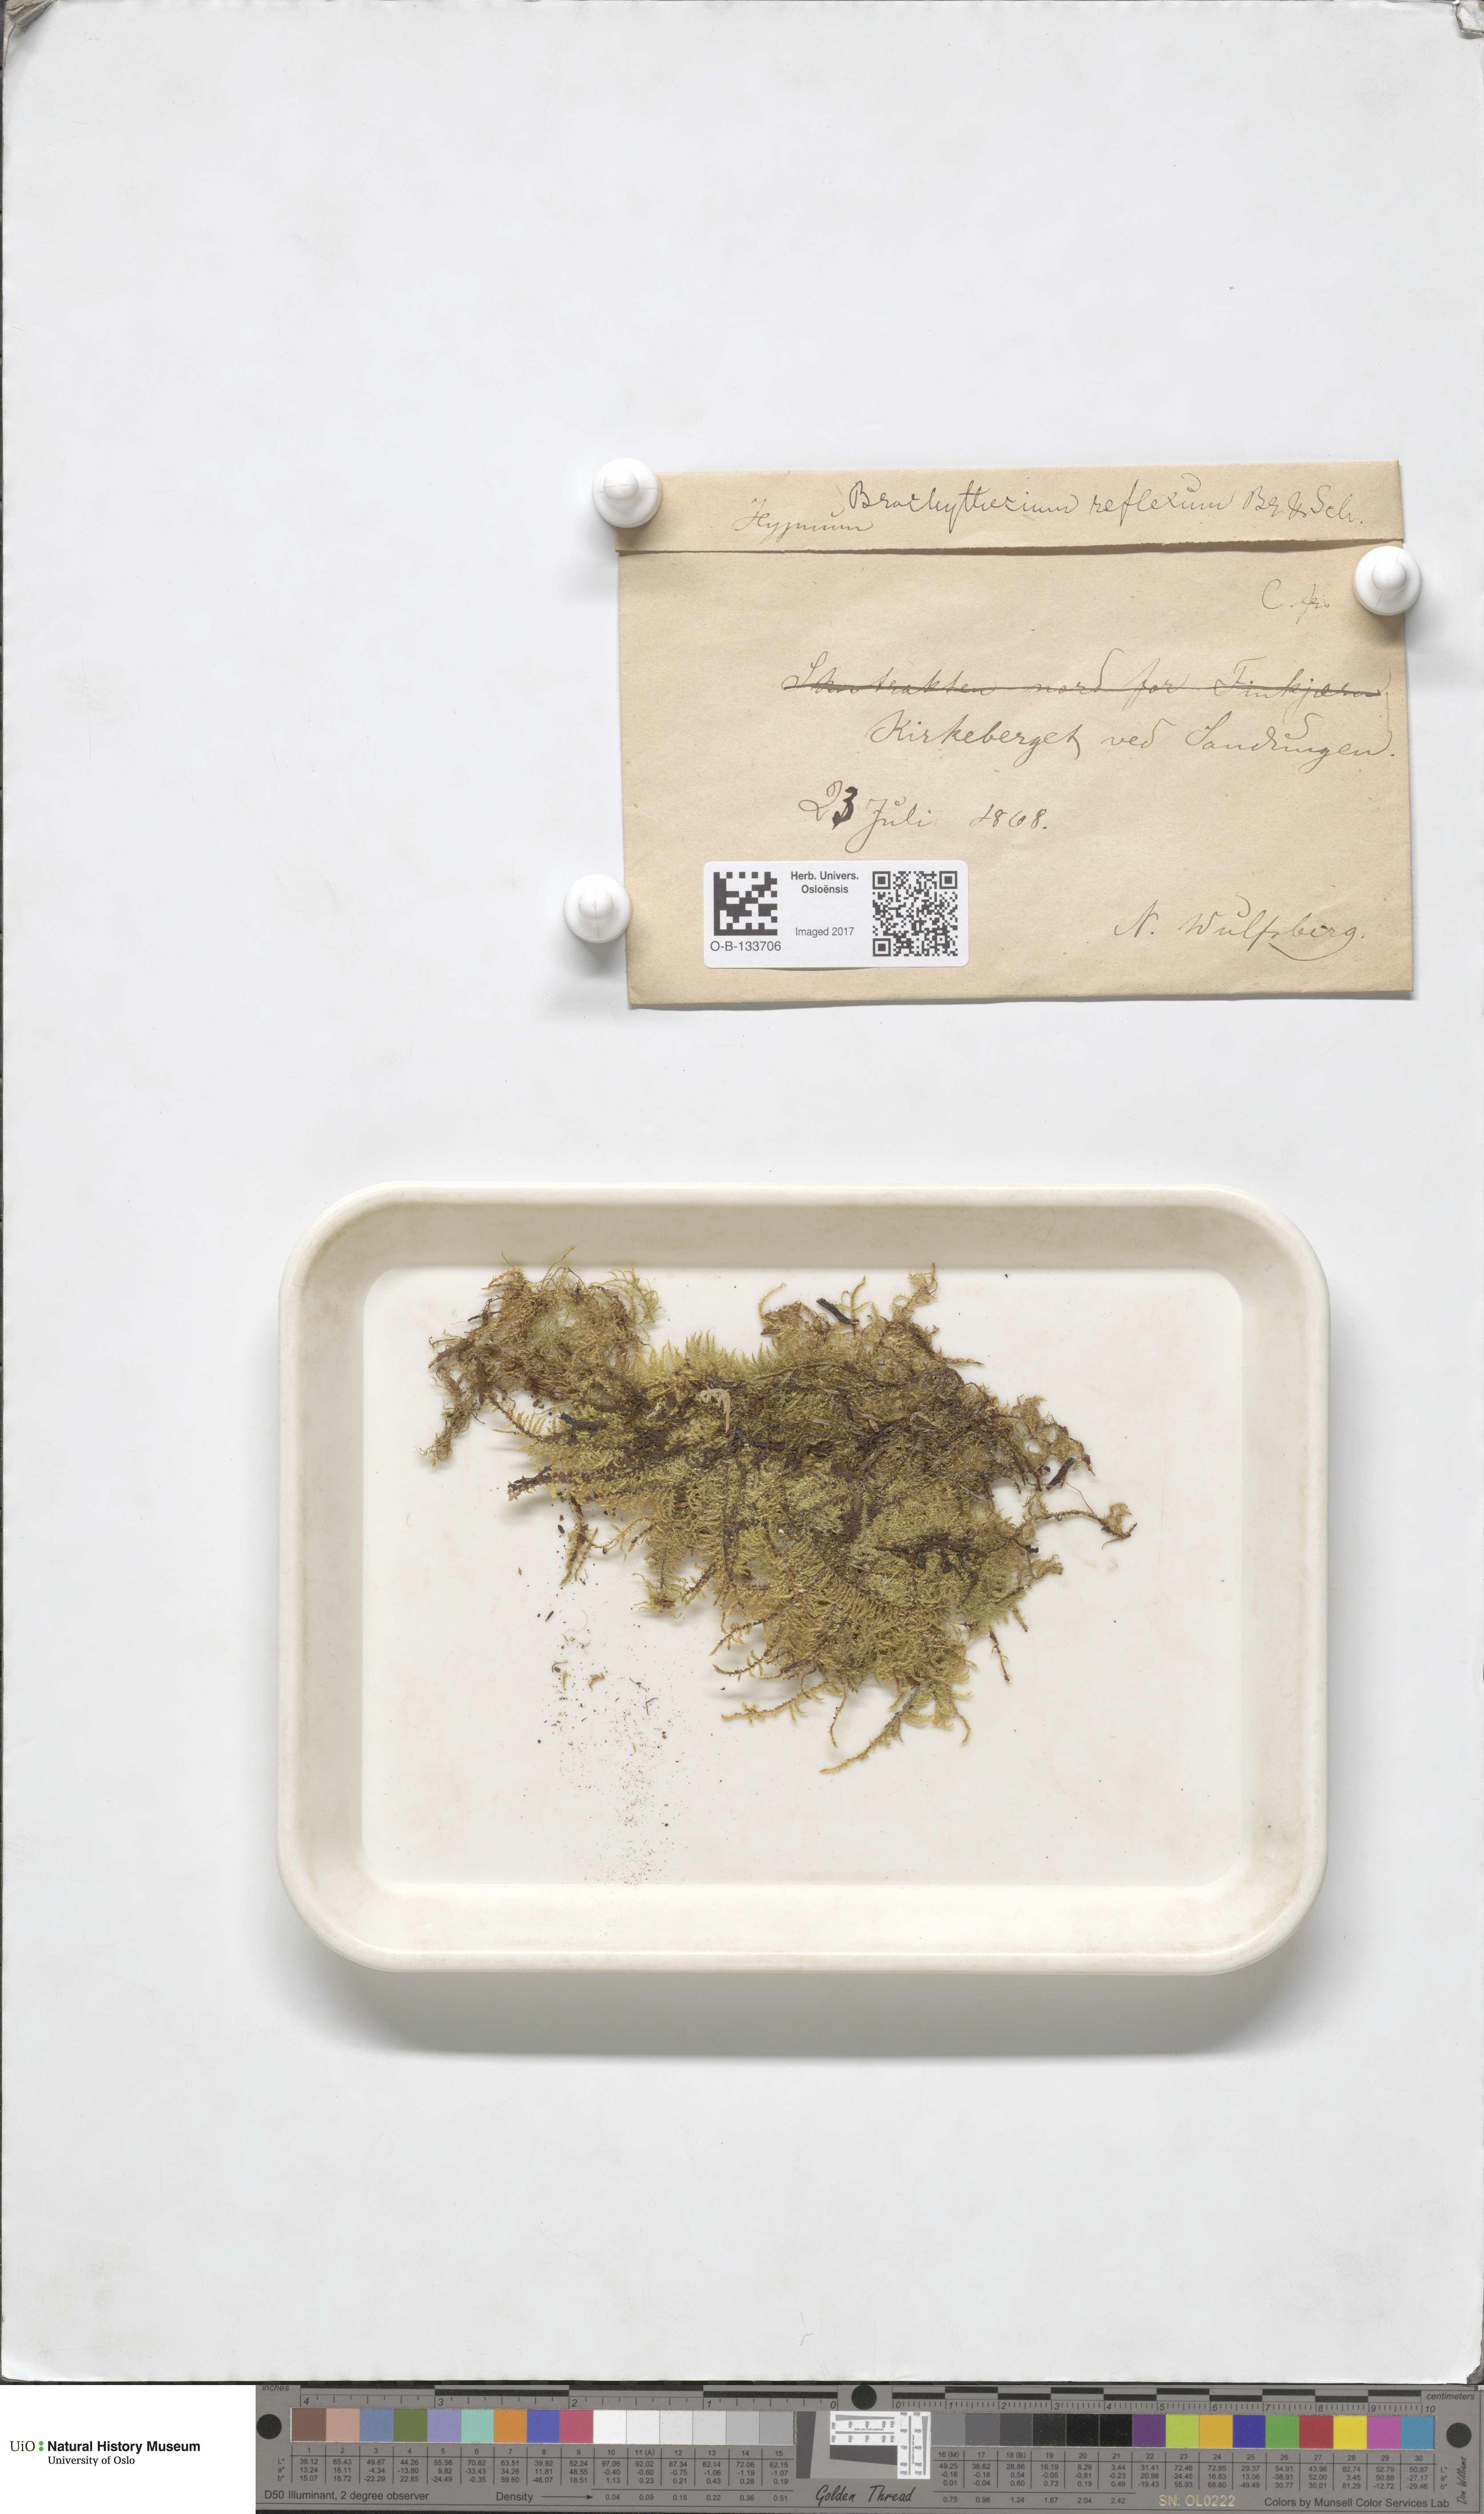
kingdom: Plantae
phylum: Bryophyta
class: Bryopsida
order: Hypnales
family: Brachytheciaceae
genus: Sciuro-hypnum
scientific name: Sciuro-hypnum reflexum
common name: Reflexed feather-moss
